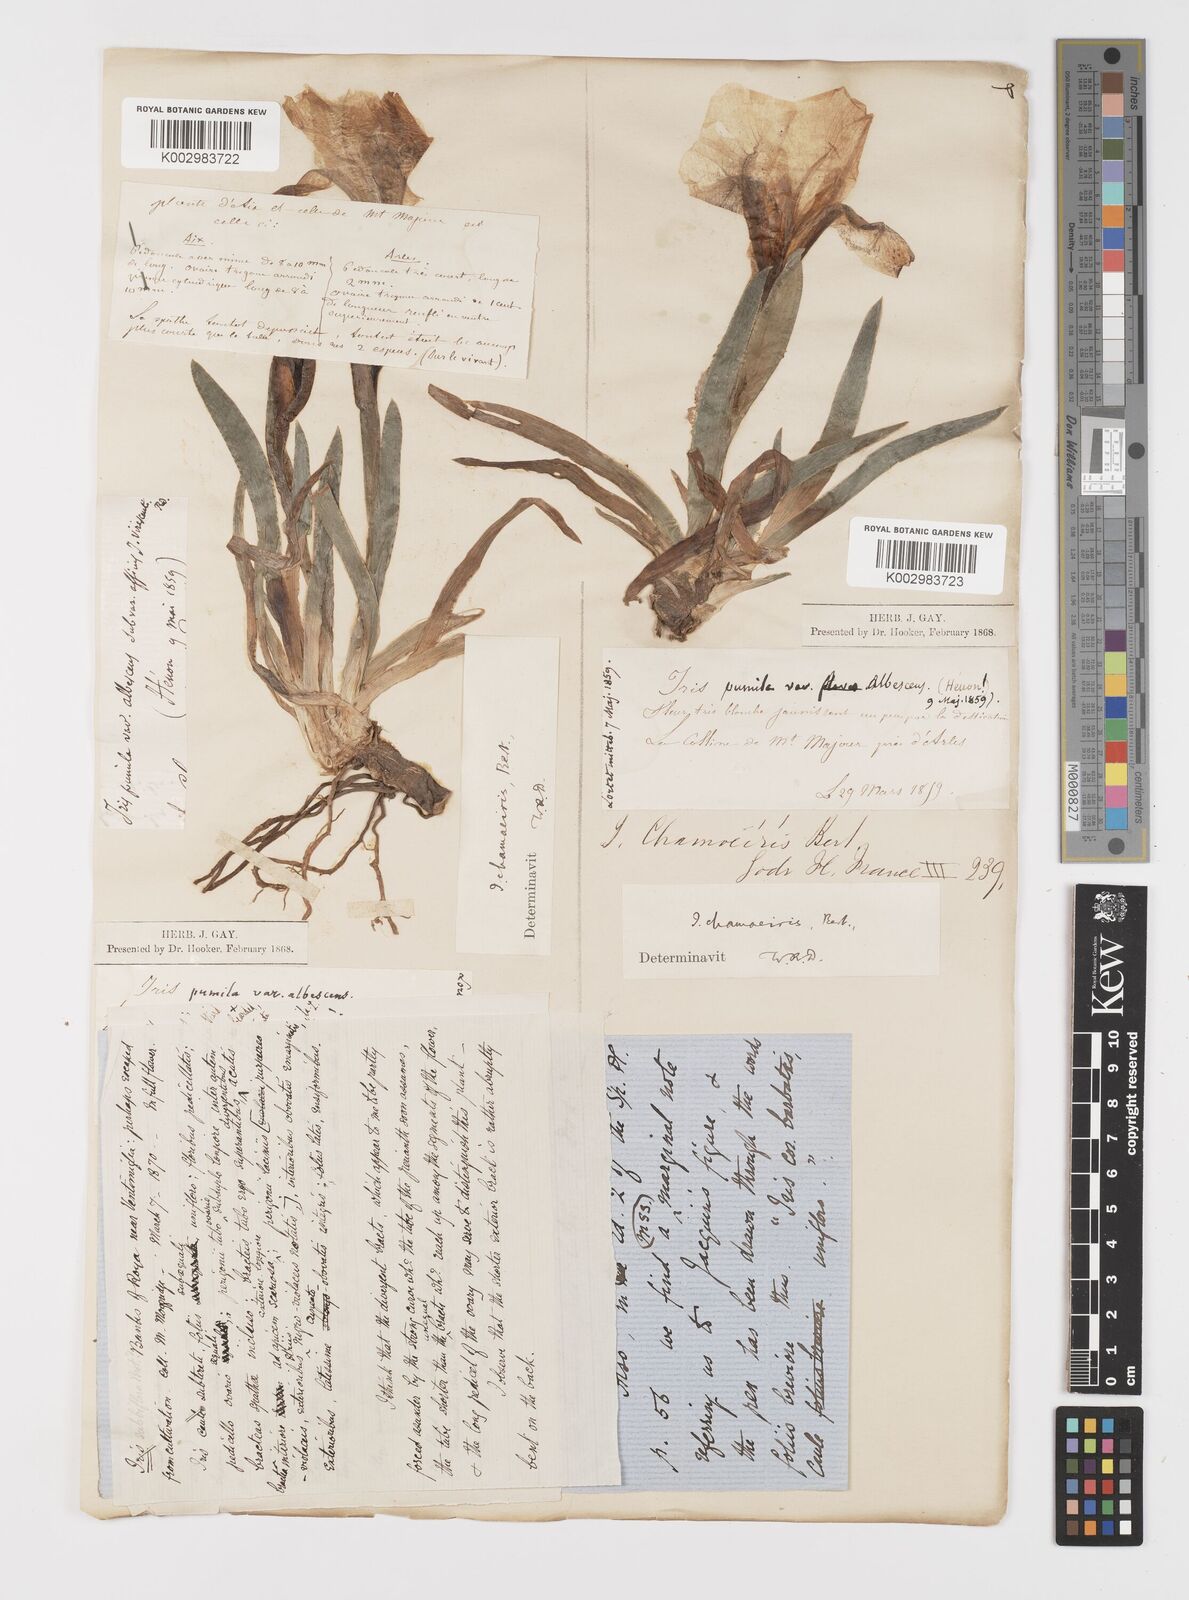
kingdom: Plantae
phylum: Tracheophyta
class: Liliopsida
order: Asparagales
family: Iridaceae
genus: Iris
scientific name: Iris lutescens
